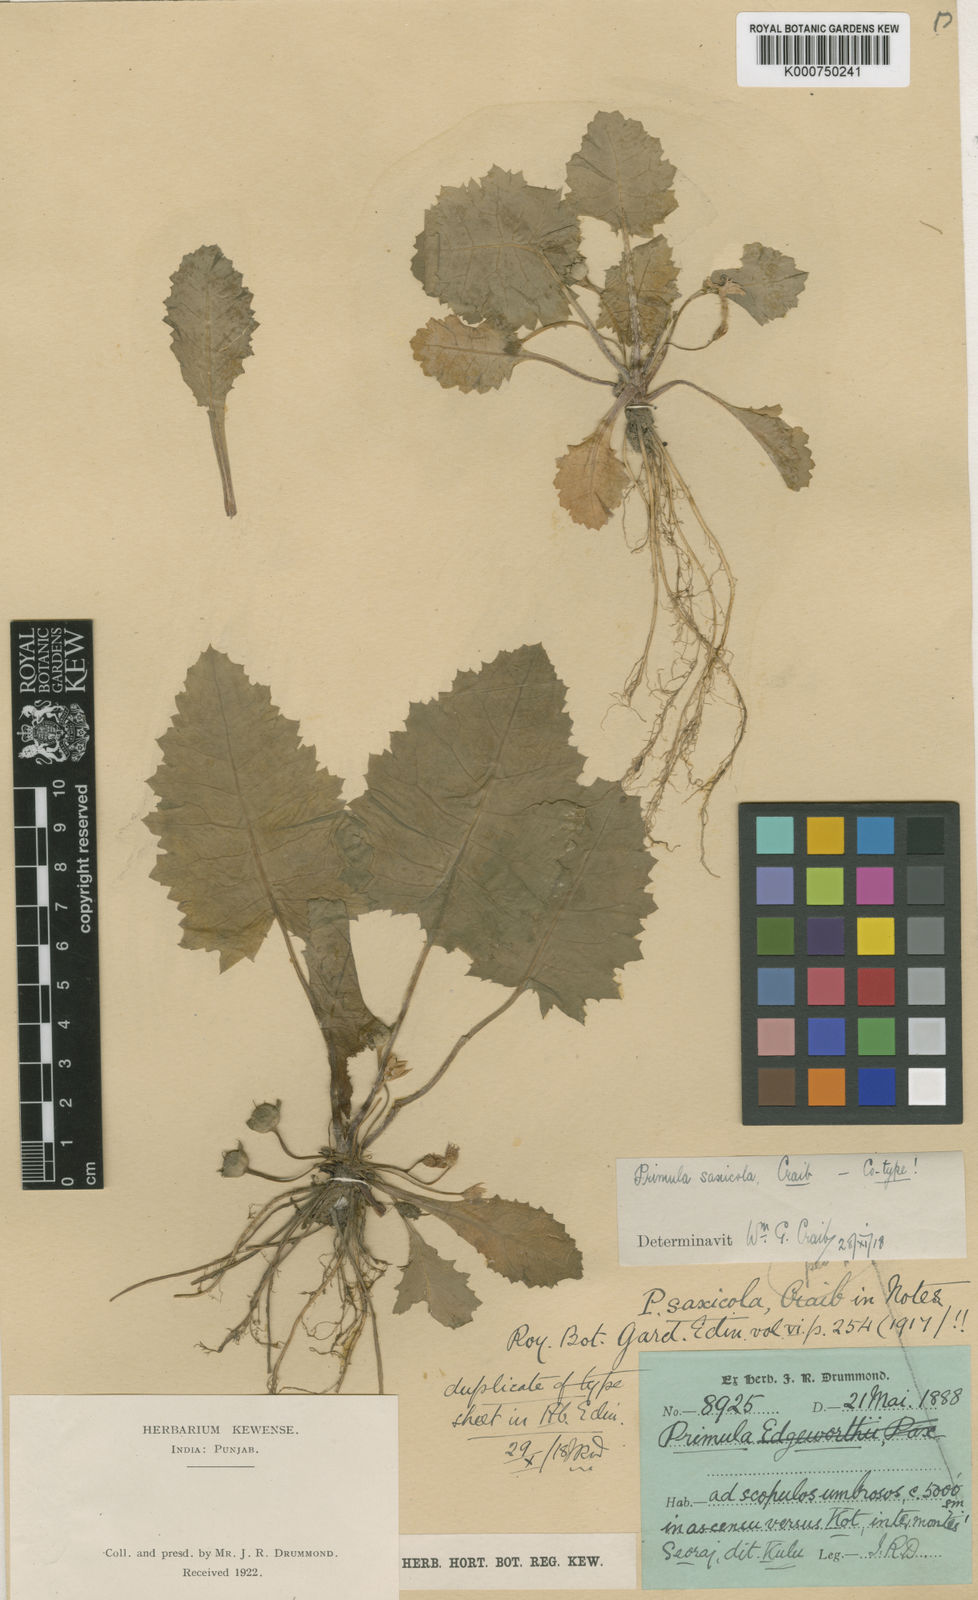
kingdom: Plantae
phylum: Tracheophyta
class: Magnoliopsida
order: Ericales
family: Primulaceae
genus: Primula
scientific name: Primula nana
